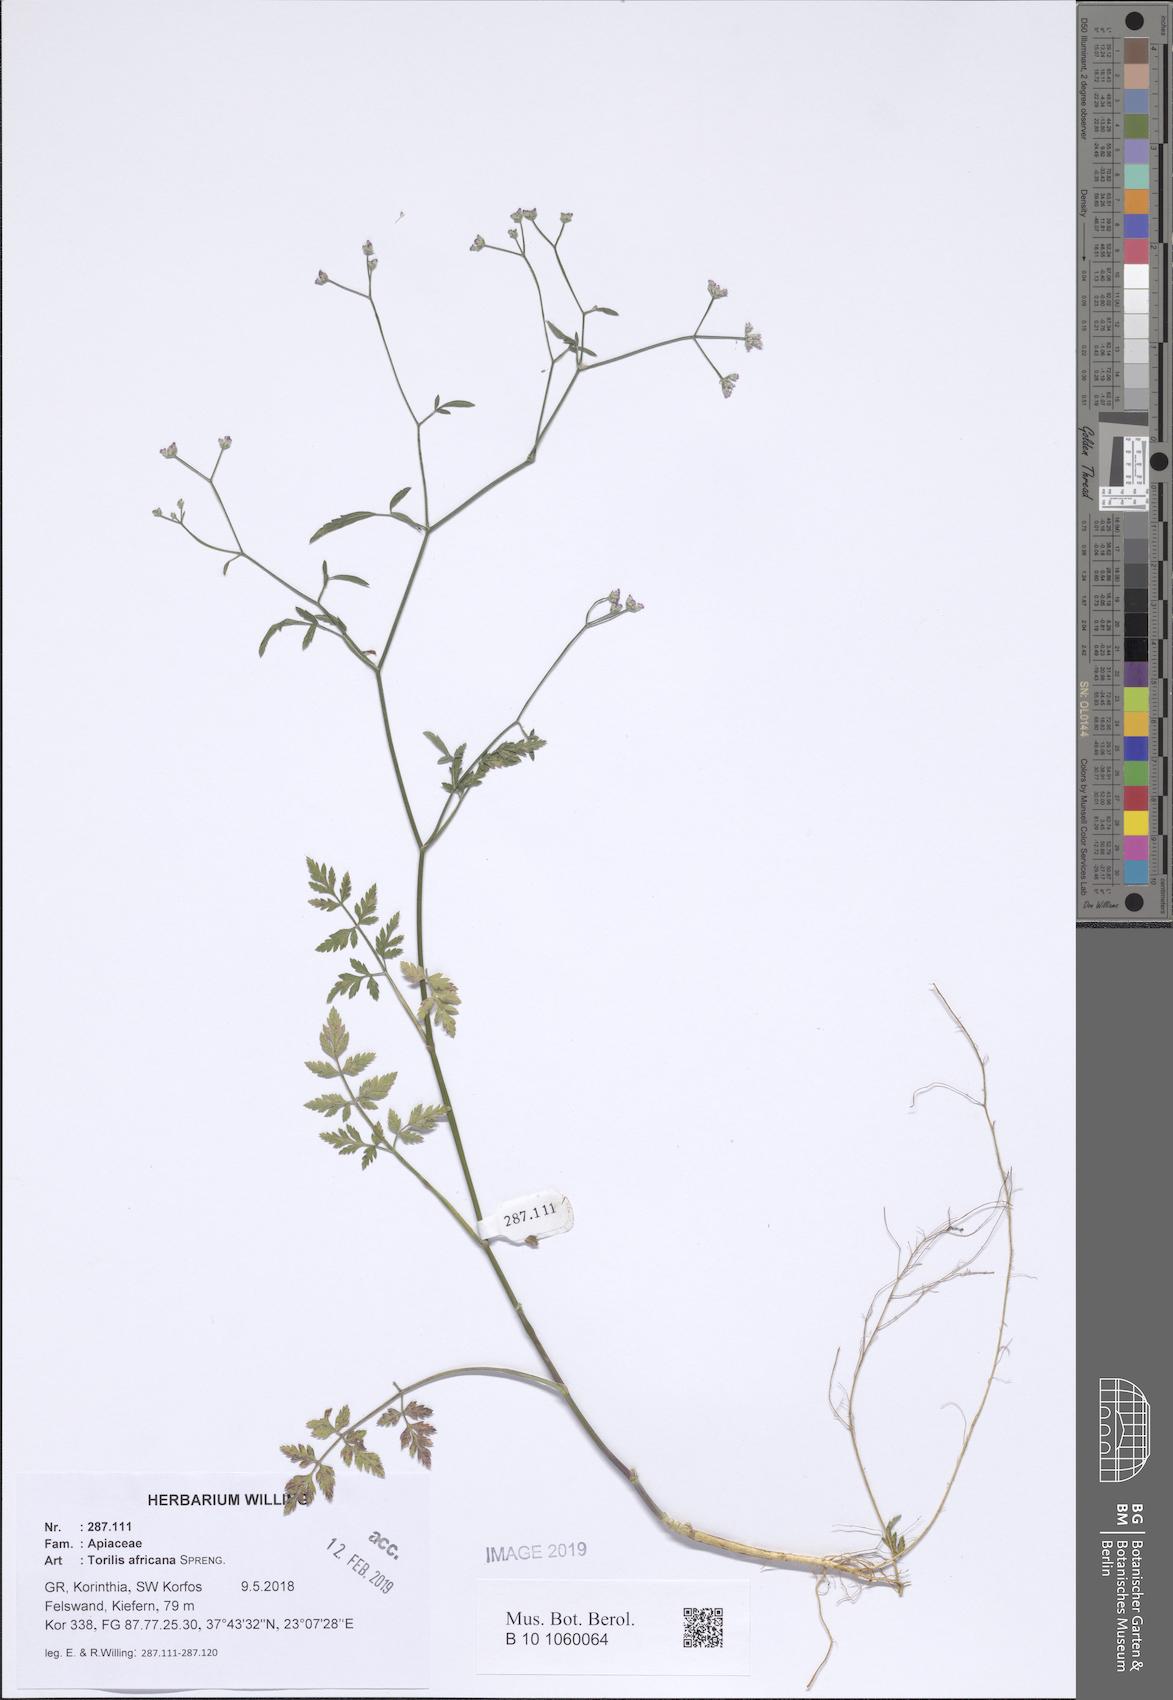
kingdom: Plantae
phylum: Tracheophyta
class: Magnoliopsida
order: Apiales
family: Apiaceae
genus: Torilis
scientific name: Torilis africana
